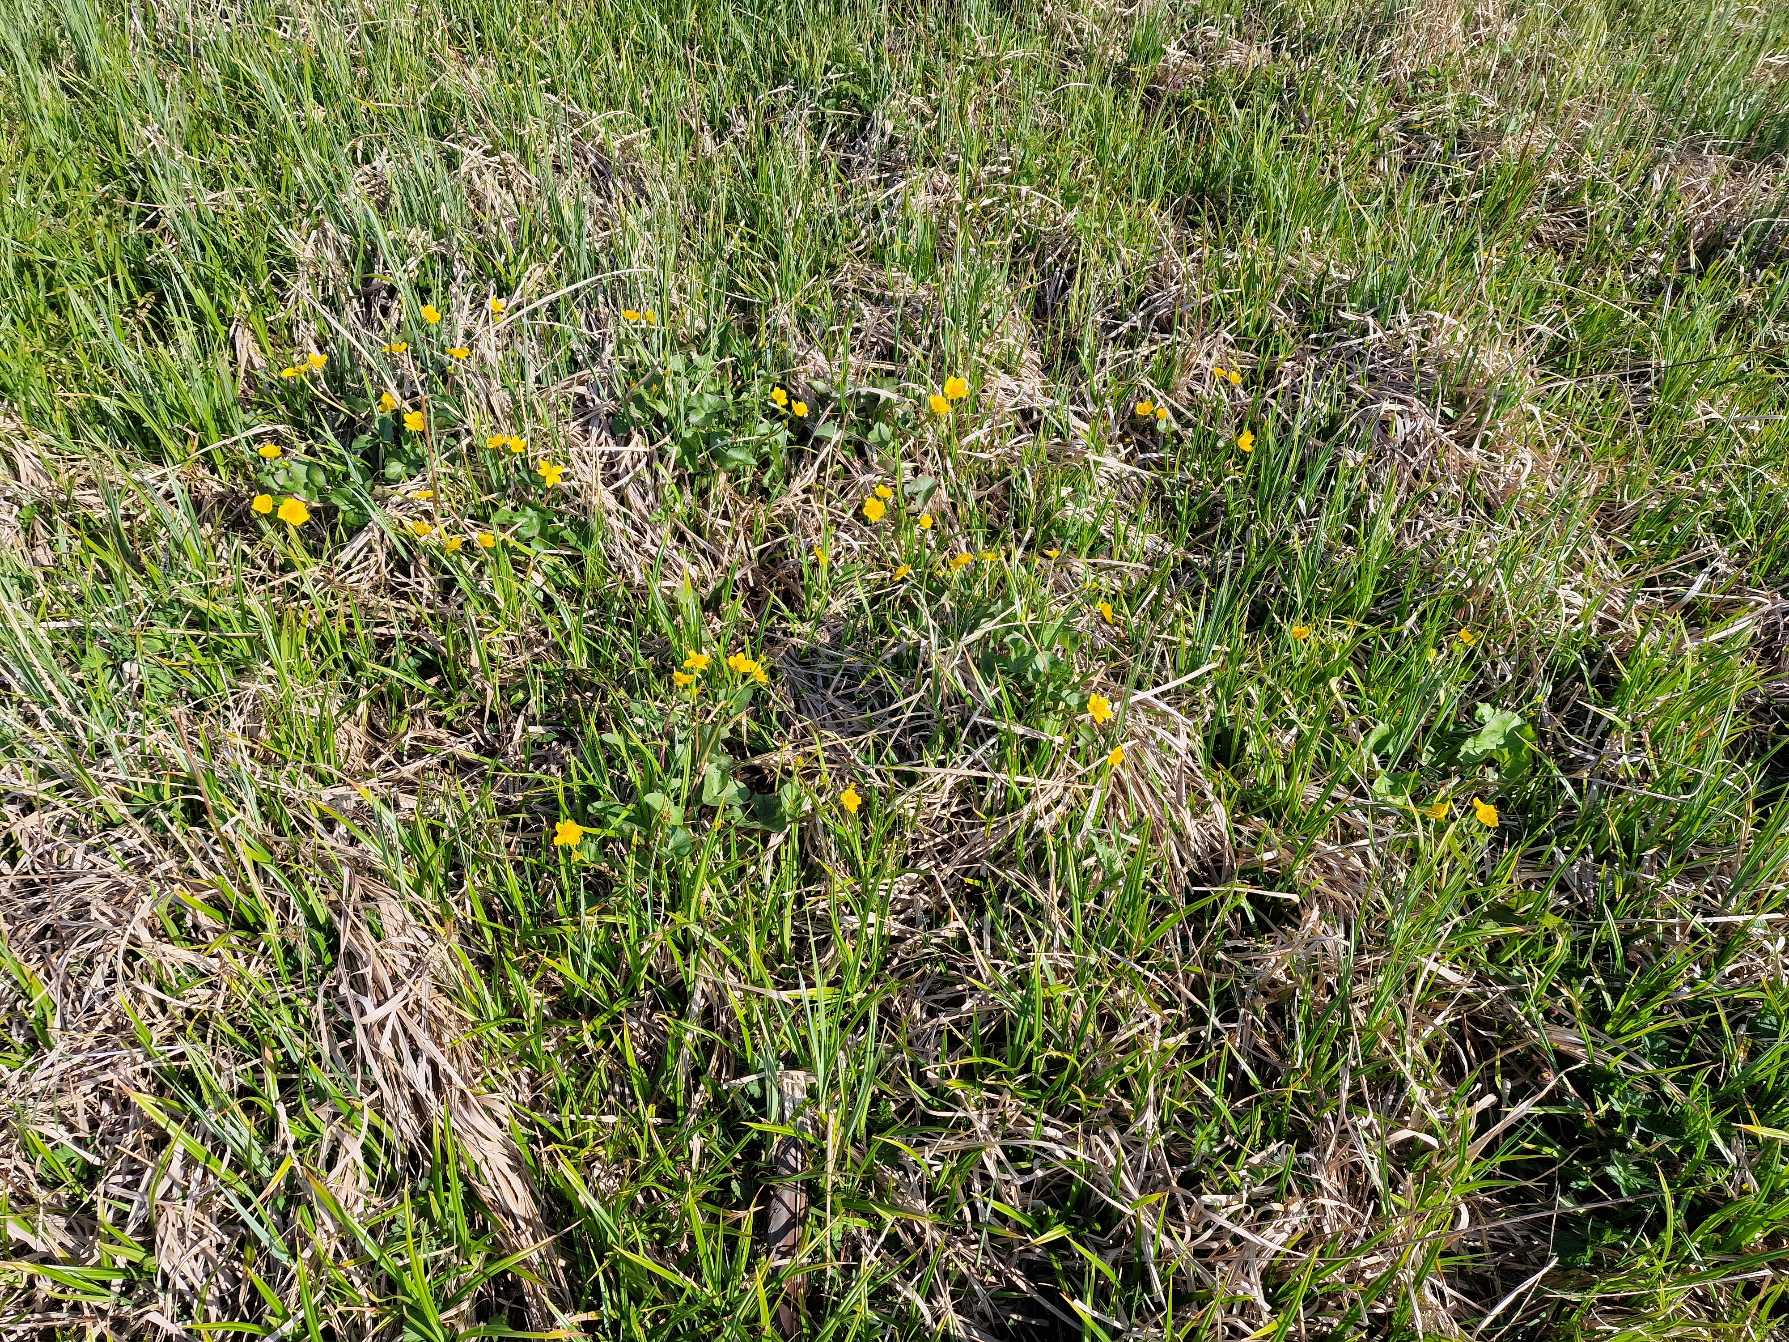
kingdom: Plantae
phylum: Tracheophyta
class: Magnoliopsida
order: Ranunculales
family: Ranunculaceae
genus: Caltha
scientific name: Caltha palustris
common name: Eng-kabbeleje
